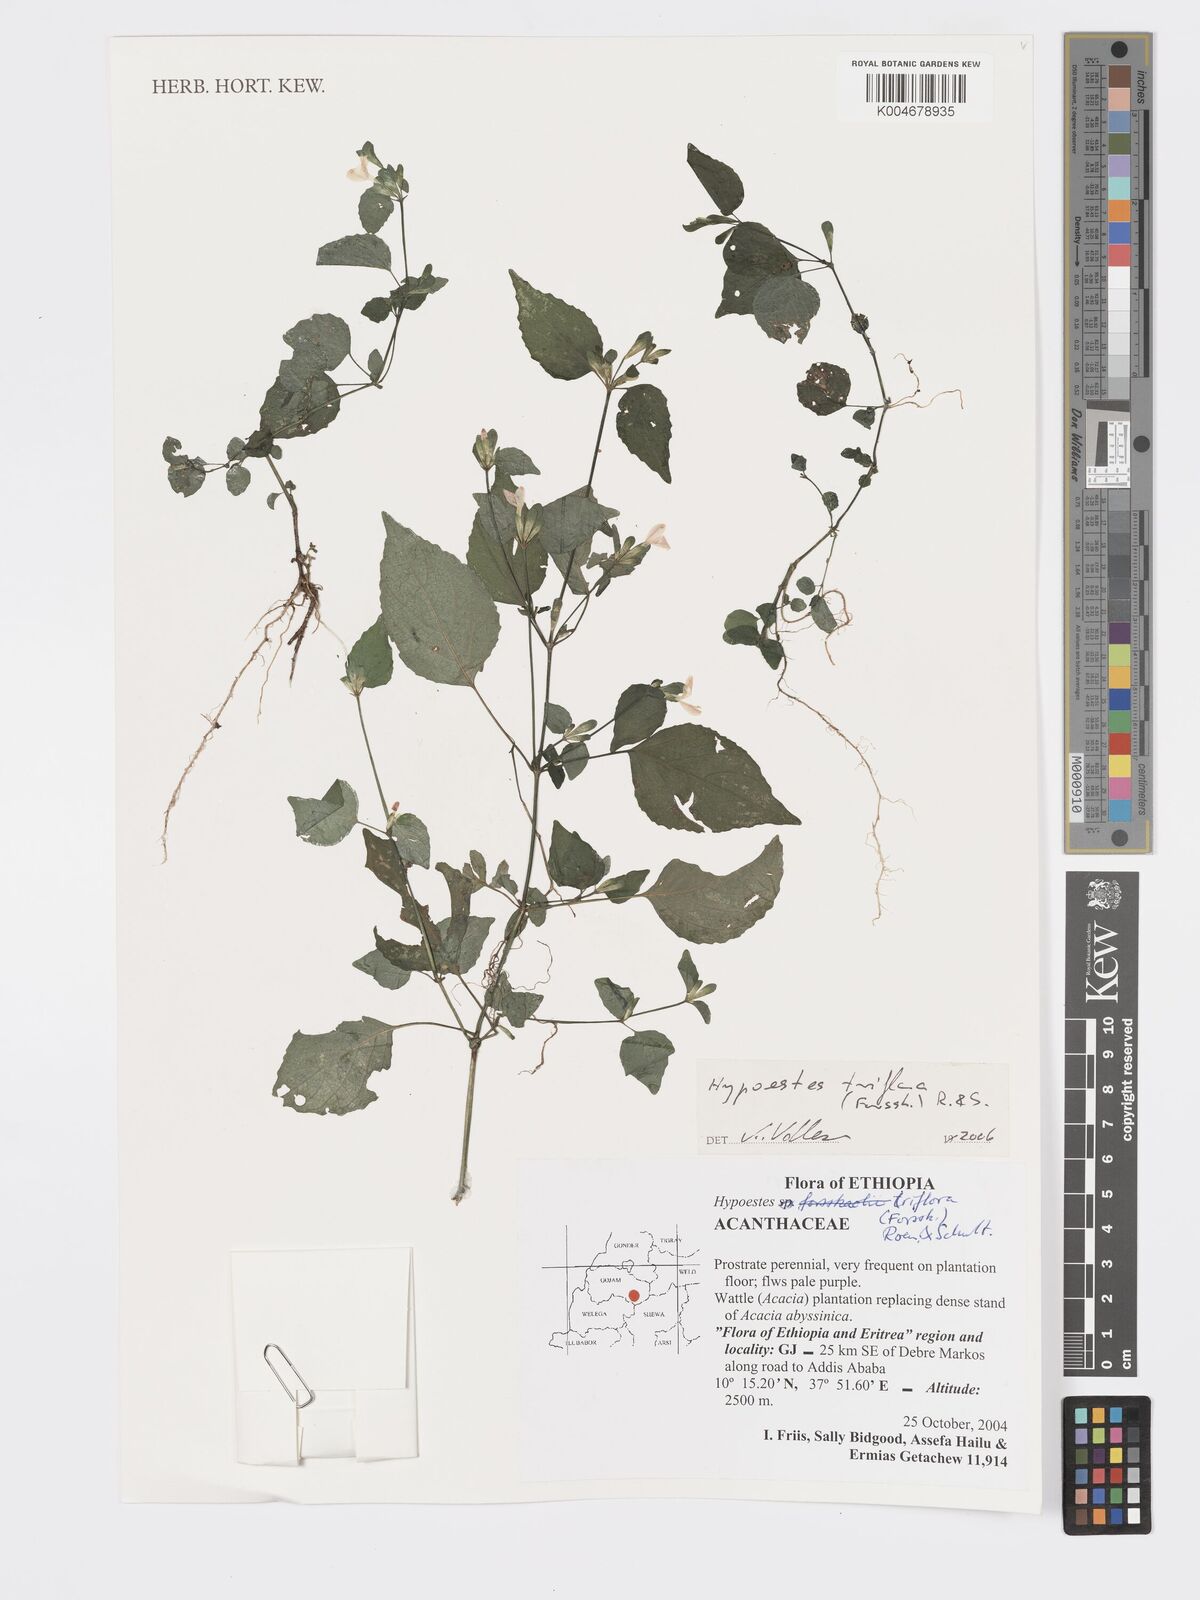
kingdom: Plantae
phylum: Tracheophyta
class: Magnoliopsida
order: Lamiales
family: Acanthaceae
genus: Hypoestes
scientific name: Hypoestes triflora
